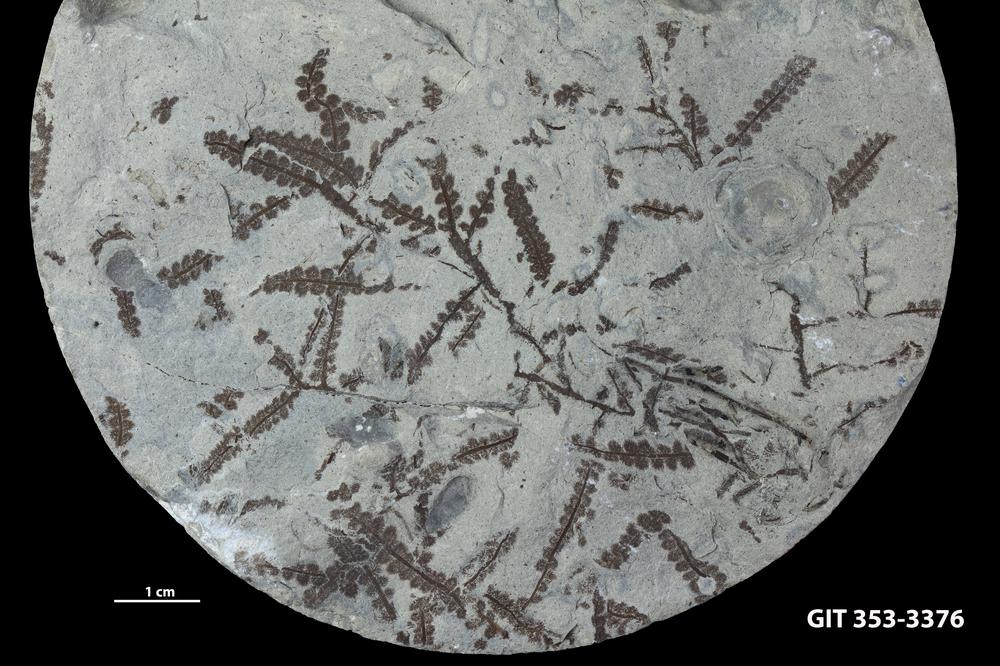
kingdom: Plantae
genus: Leveilleites
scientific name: Leveilleites hartnageli
